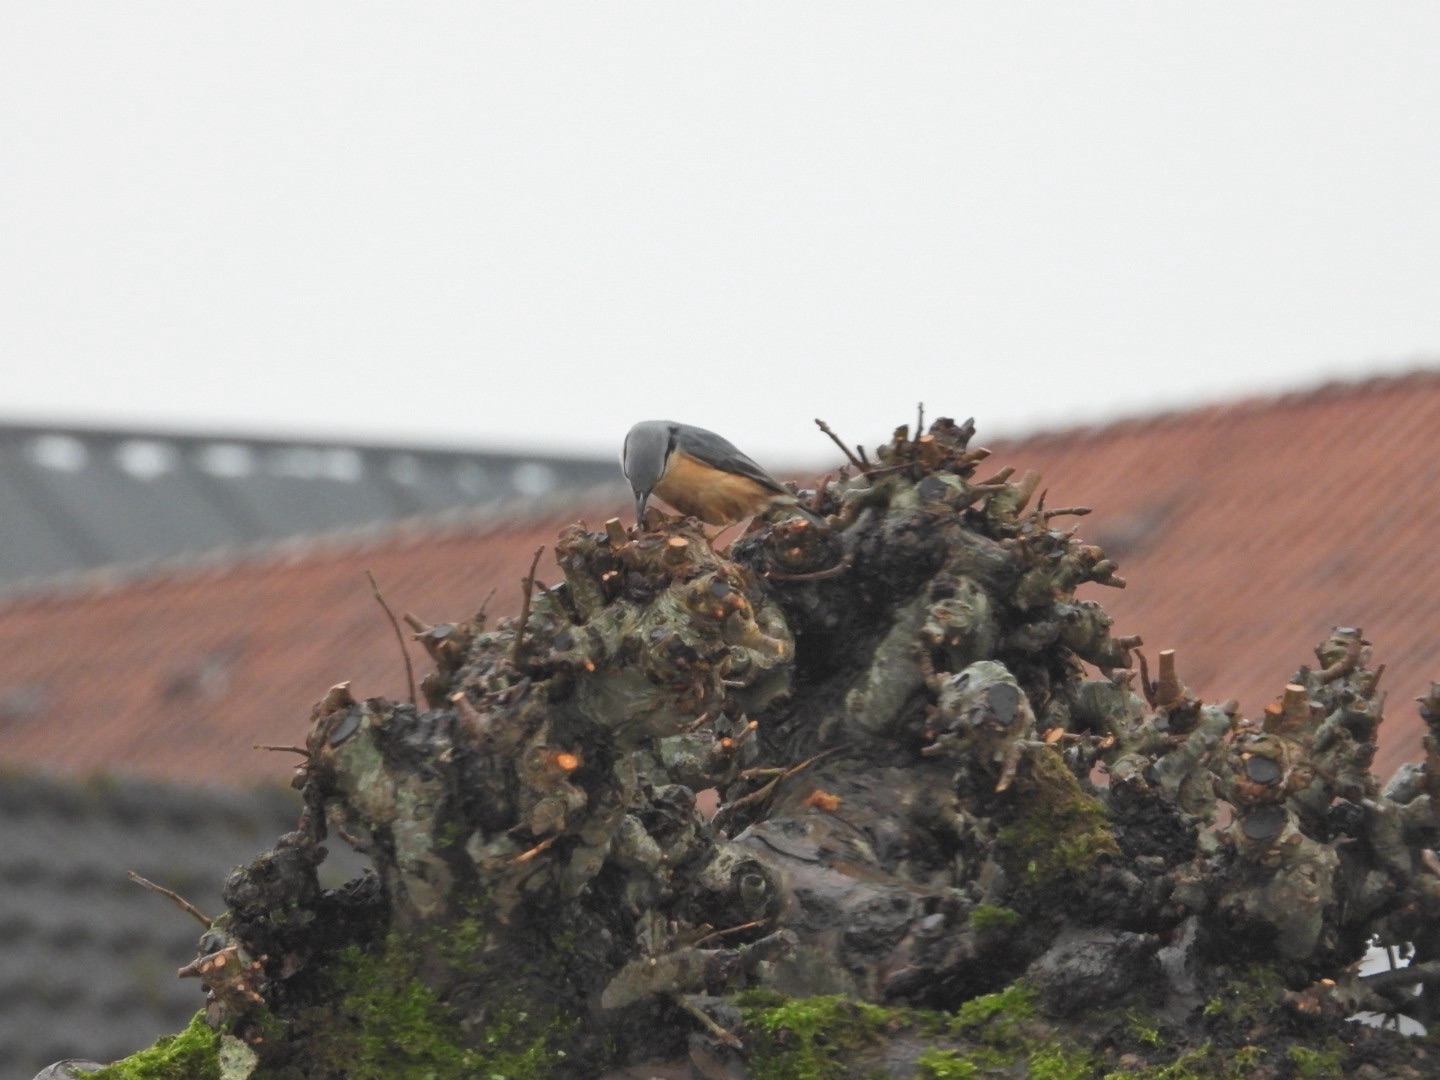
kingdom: Animalia
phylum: Chordata
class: Aves
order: Passeriformes
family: Sittidae
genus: Sitta
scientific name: Sitta europaea
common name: Mørkbuget spætmejse
